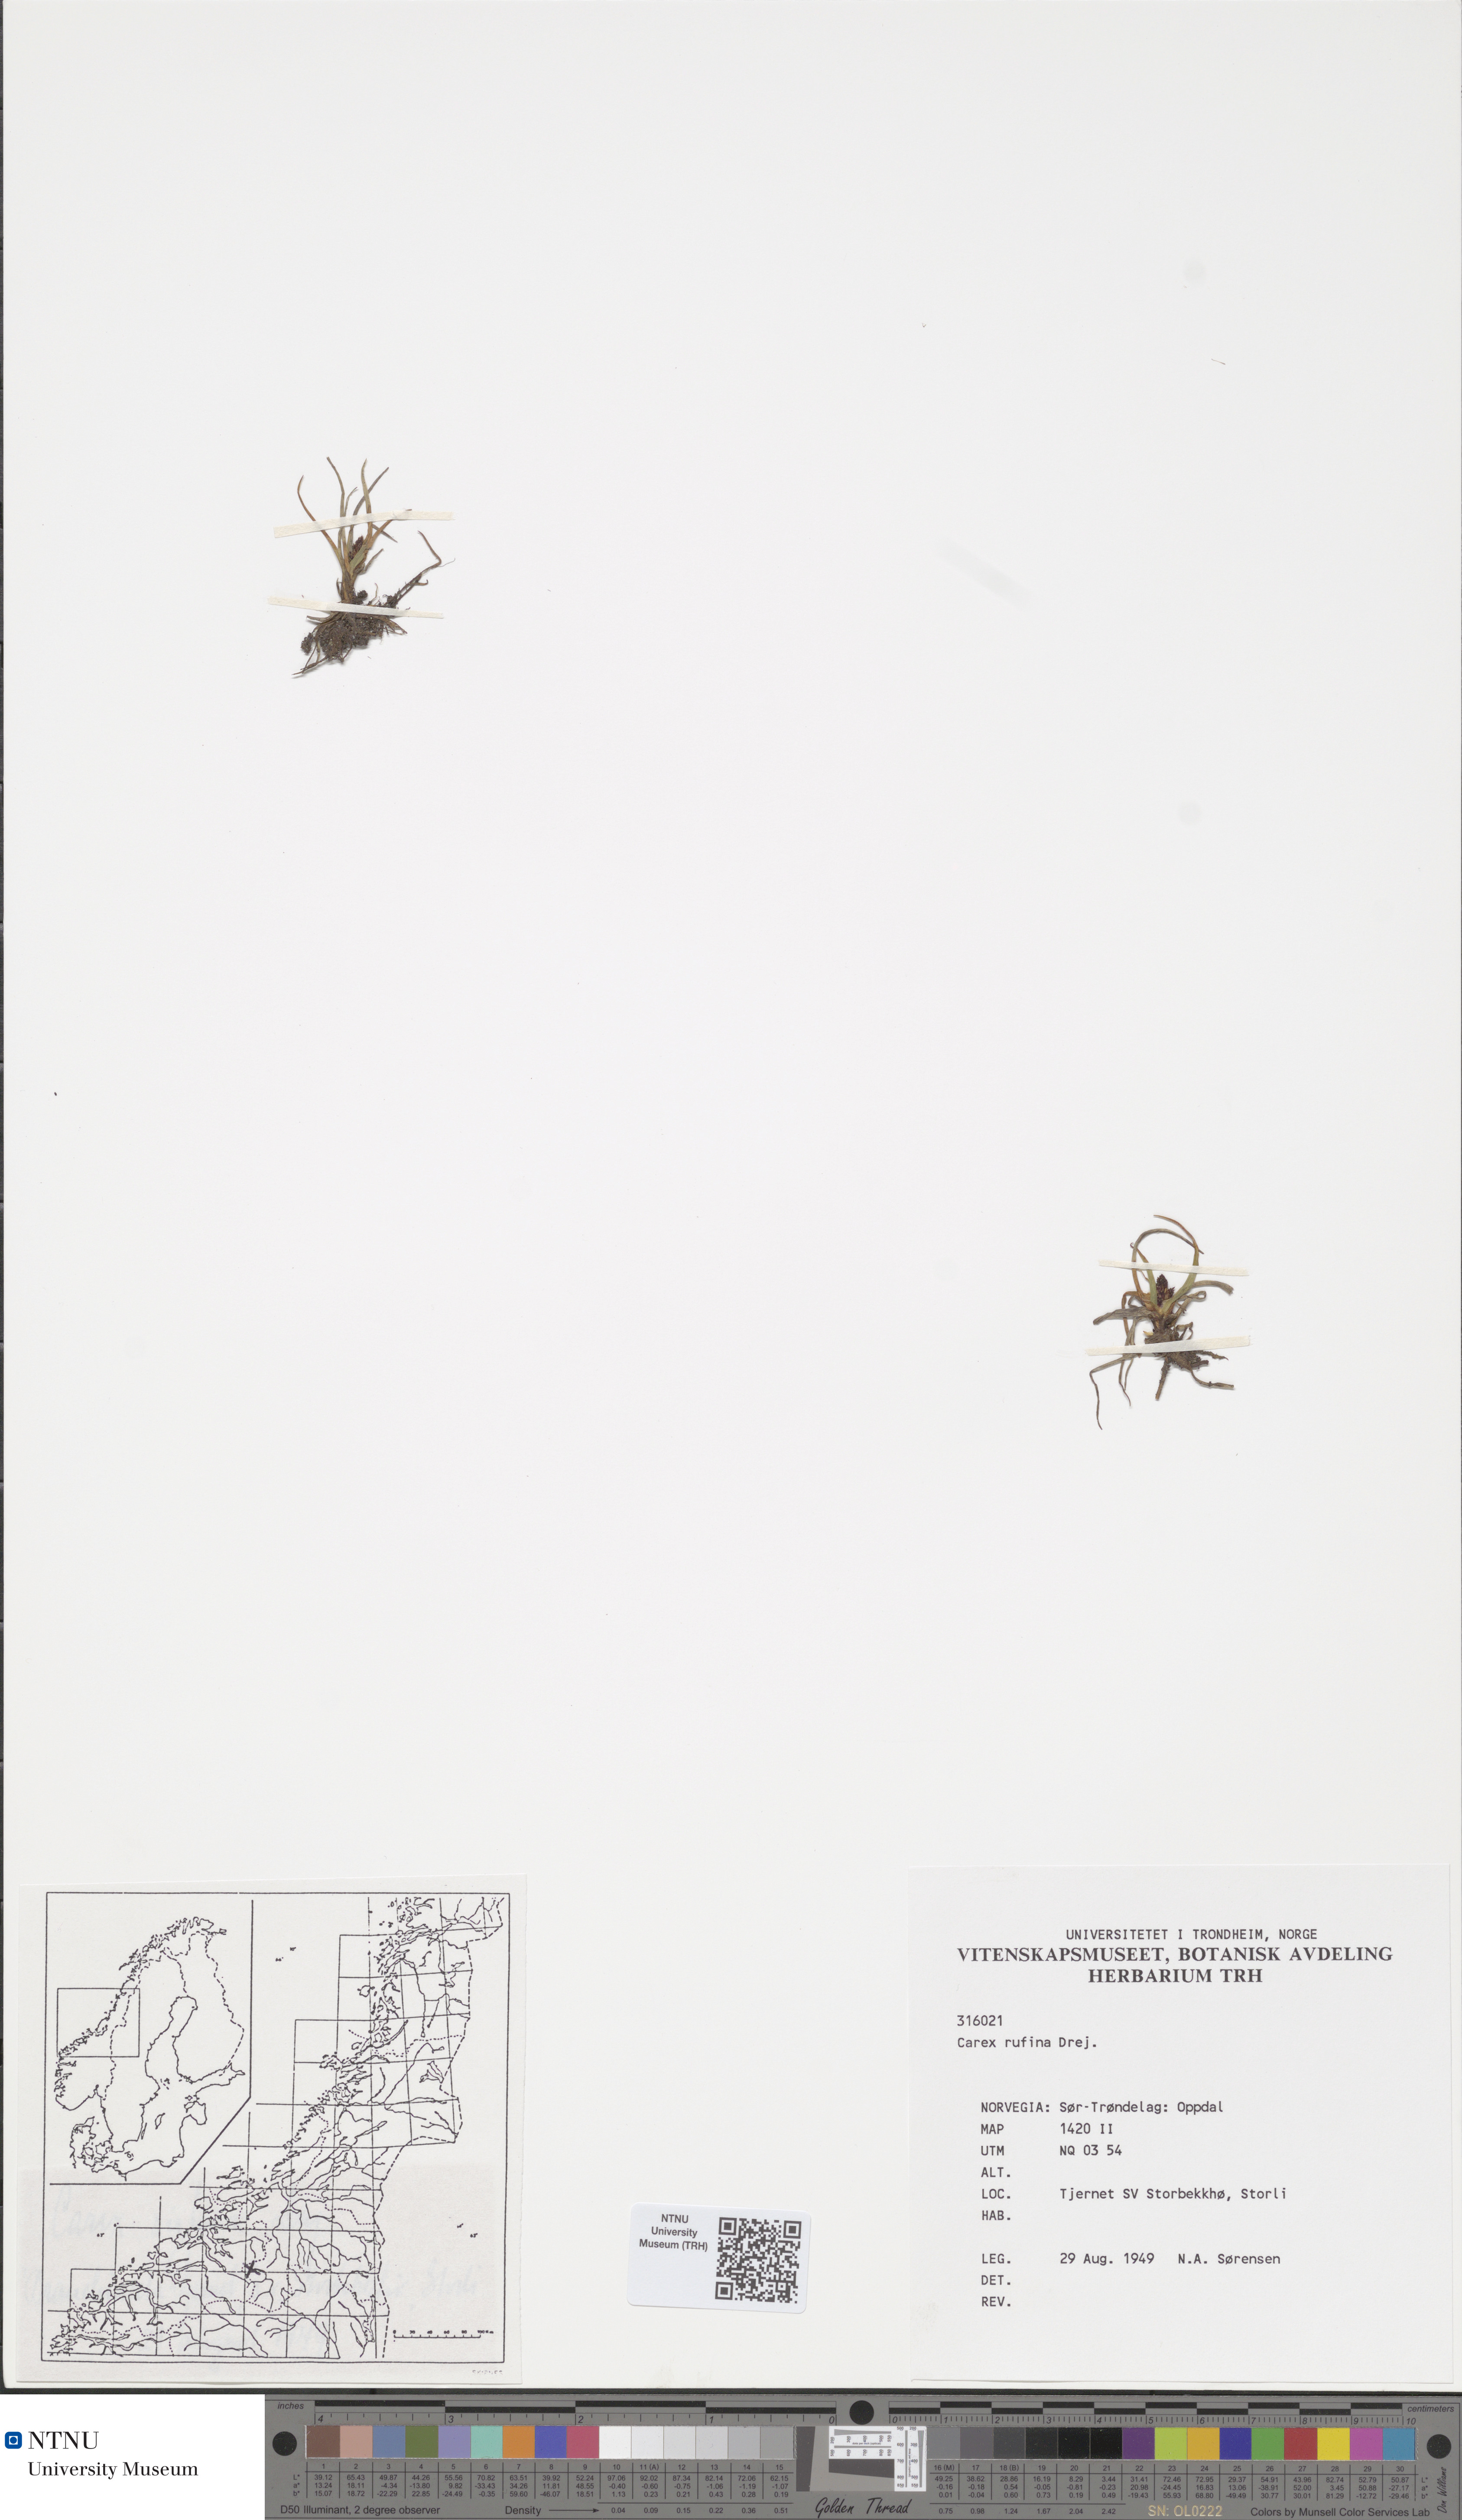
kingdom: Plantae
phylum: Tracheophyta
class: Liliopsida
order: Poales
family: Cyperaceae
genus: Carex
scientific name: Carex rufina
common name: Reddish sedge
